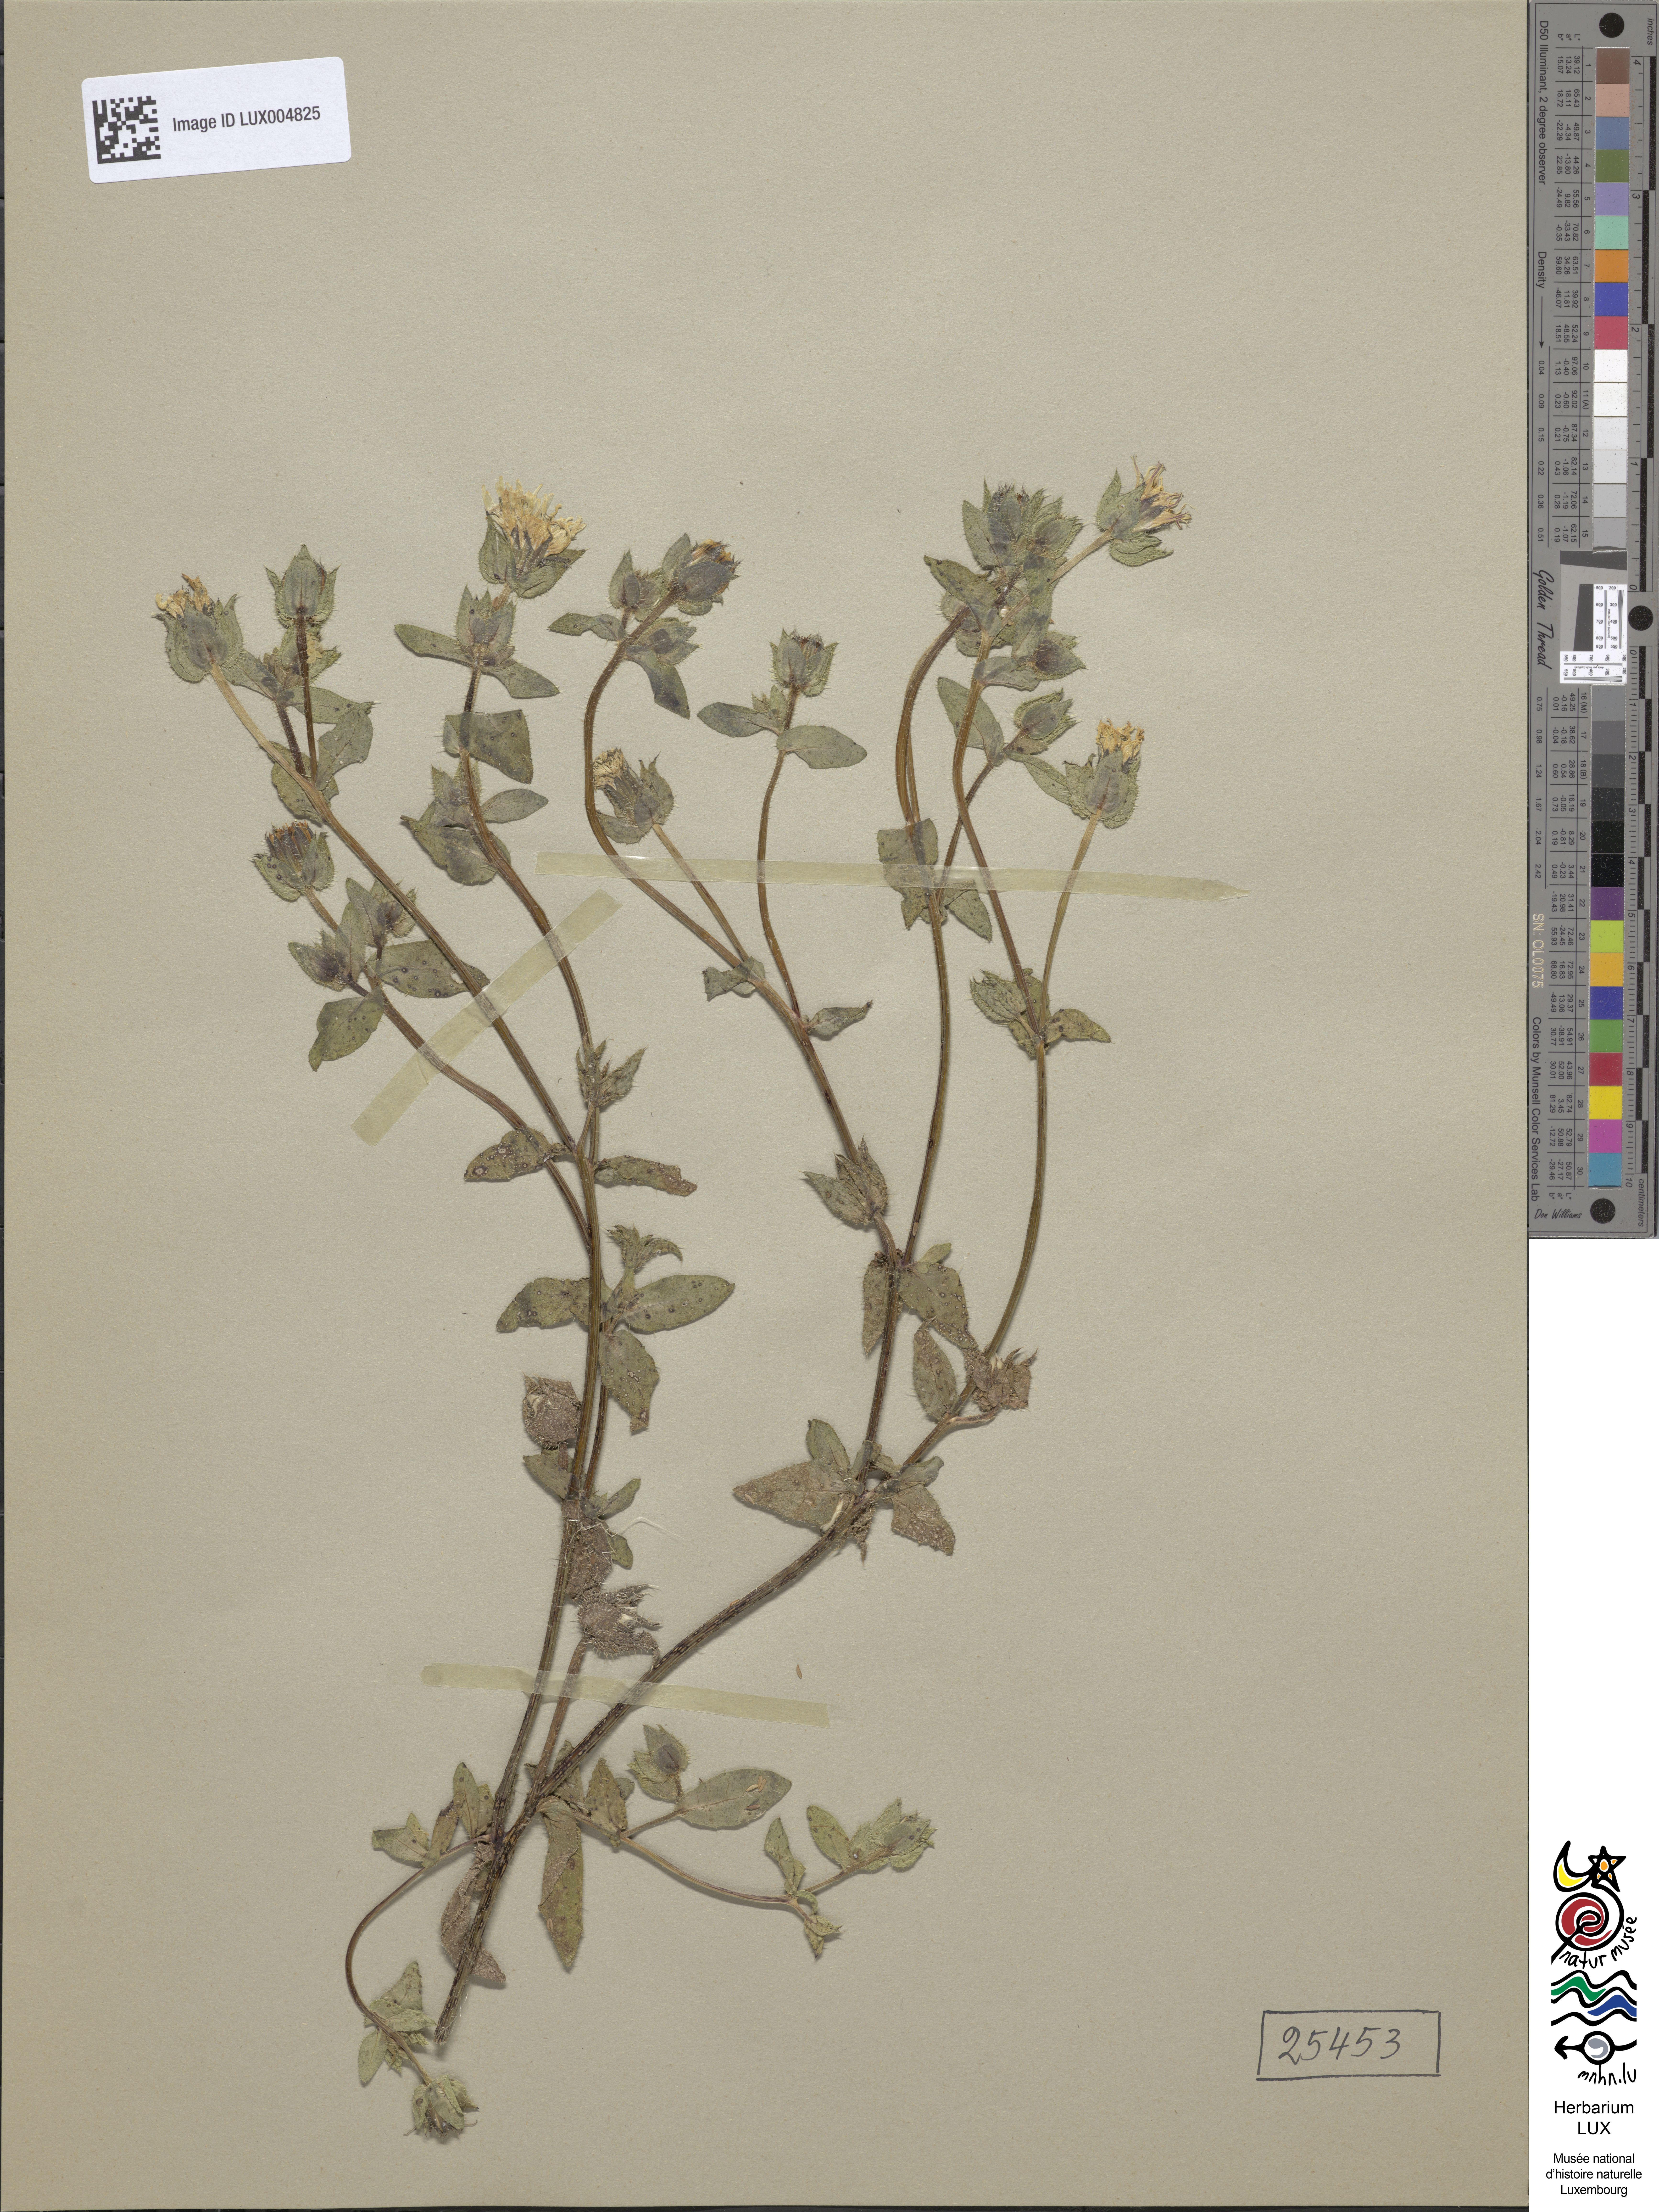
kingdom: Plantae
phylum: Tracheophyta
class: Magnoliopsida
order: Asterales
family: Asteraceae
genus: Helminthotheca
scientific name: Helminthotheca echioides
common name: Ox-tongue
